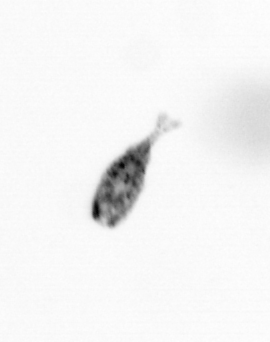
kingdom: Animalia
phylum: Arthropoda
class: Copepoda
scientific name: Copepoda
